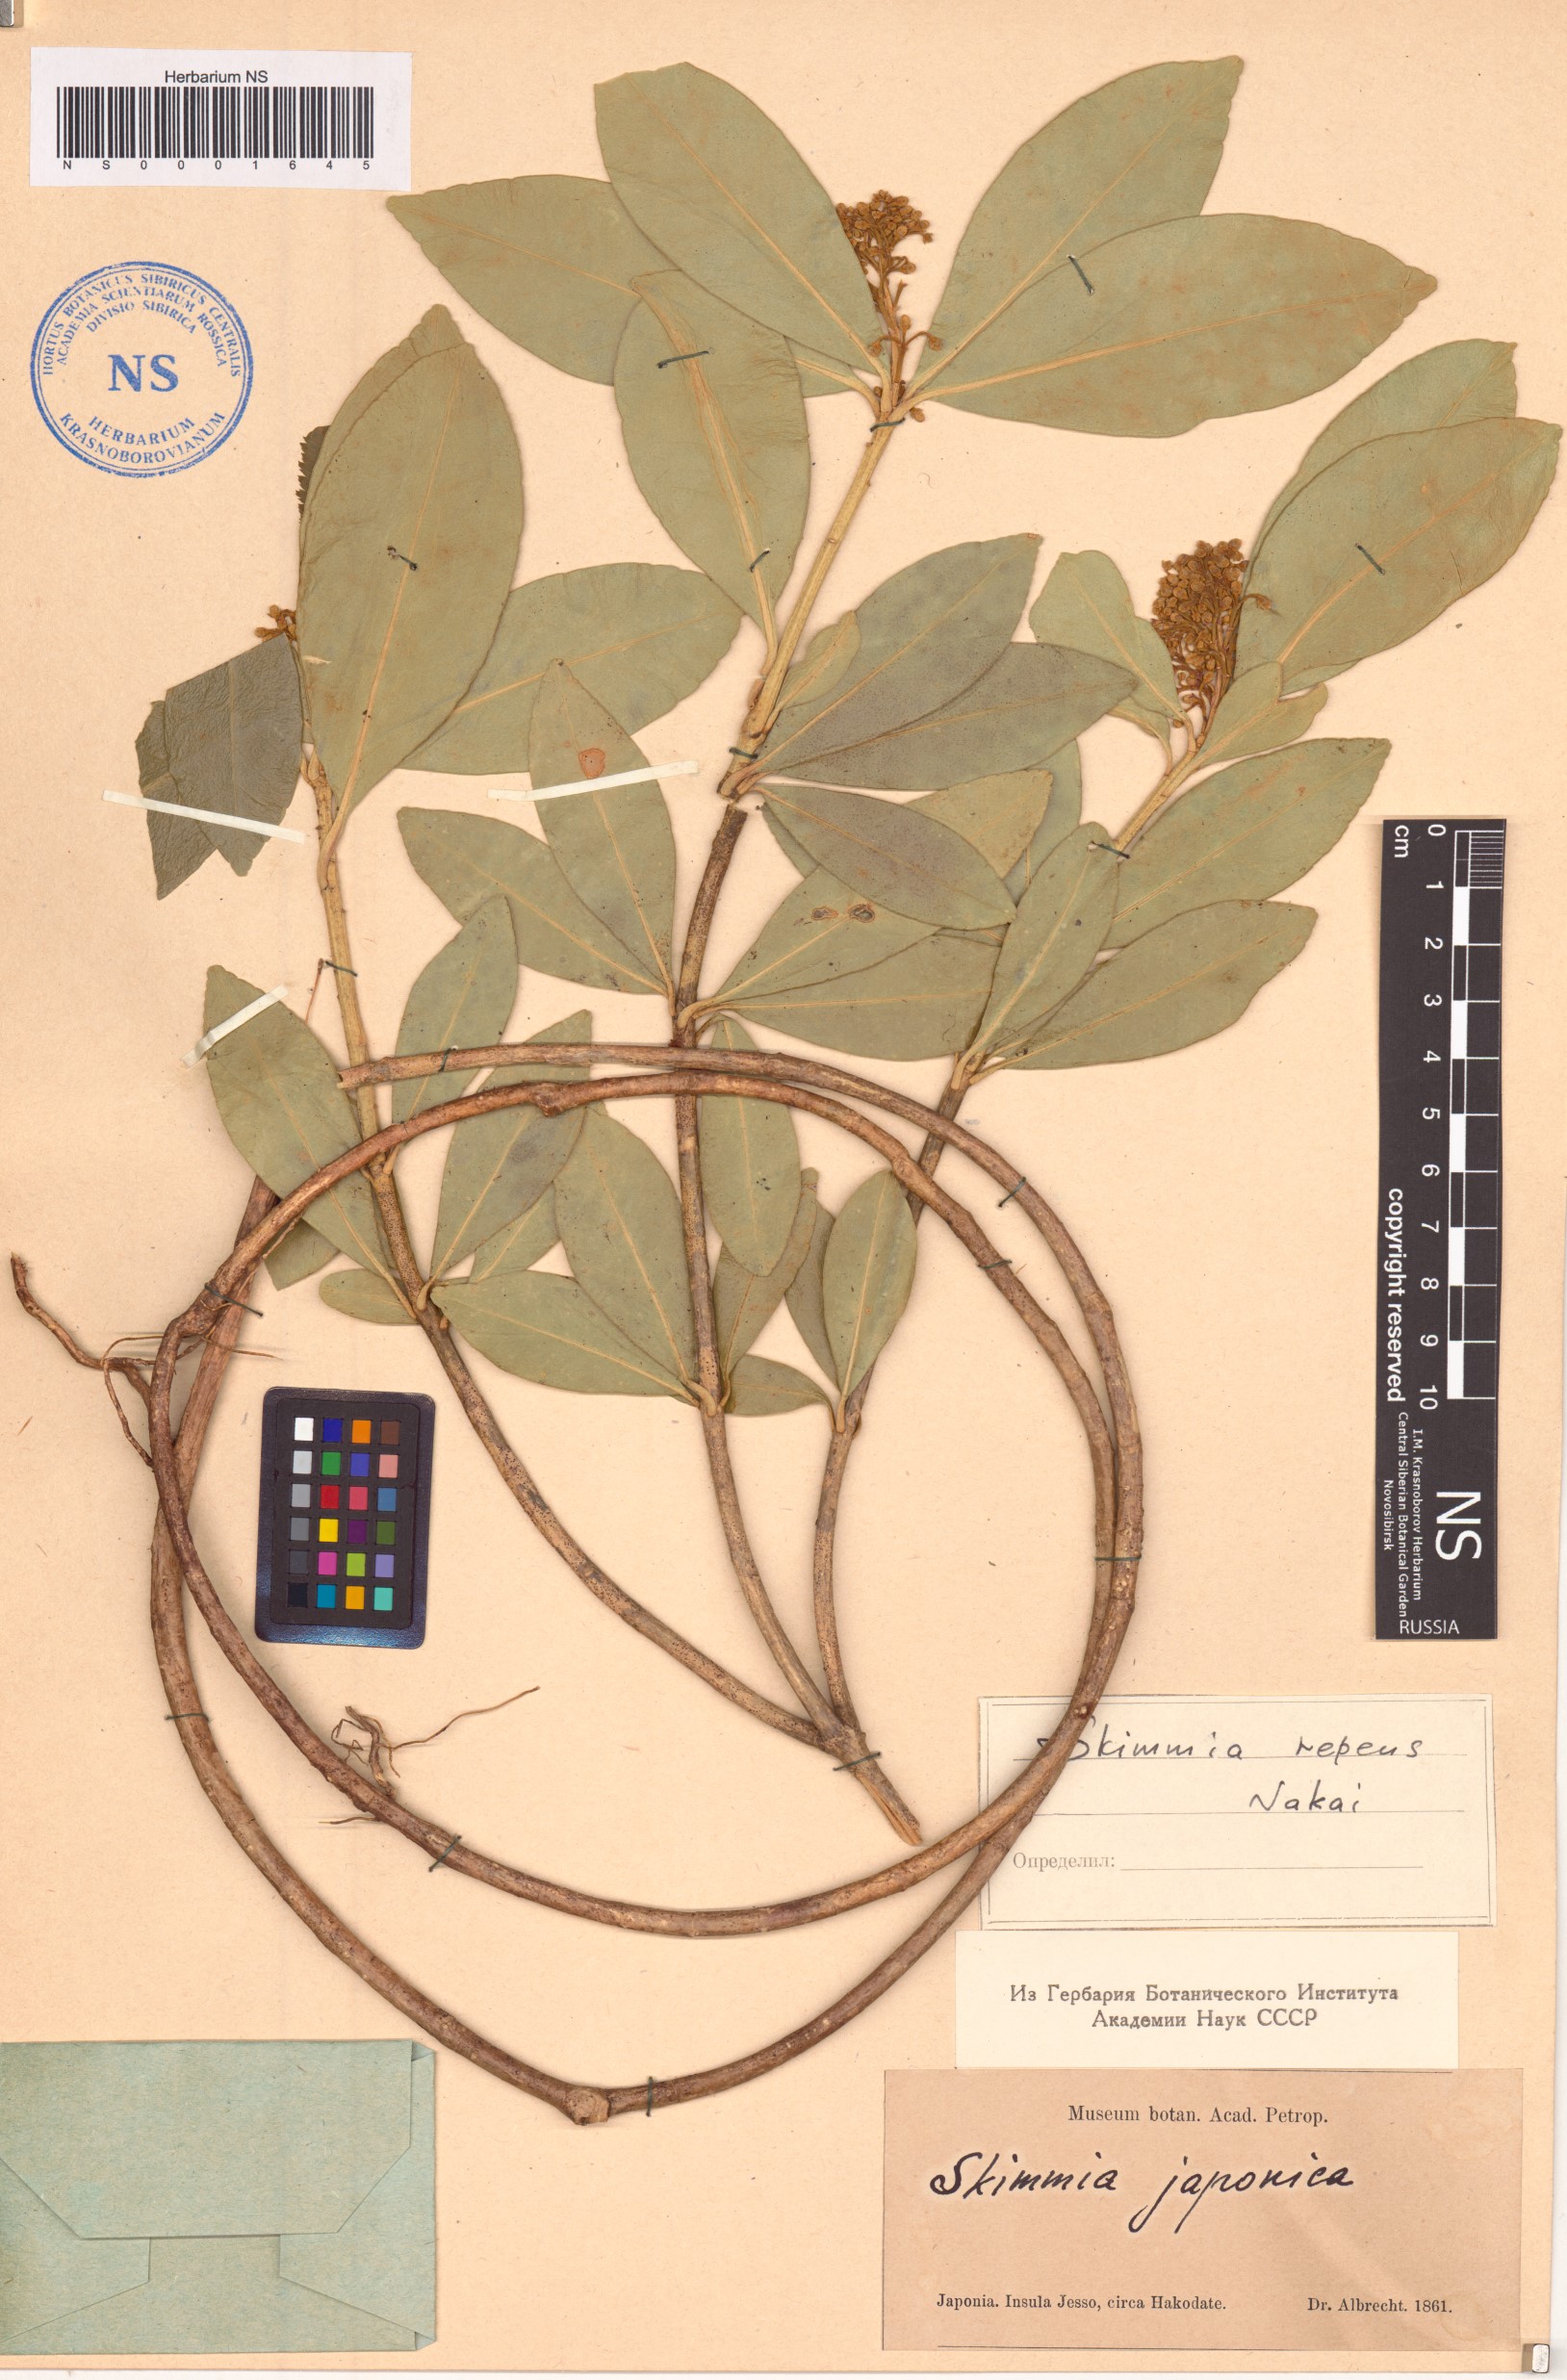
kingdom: Plantae
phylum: Tracheophyta
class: Magnoliopsida
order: Sapindales
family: Rutaceae
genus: Skimmia
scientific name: Skimmia japonica
